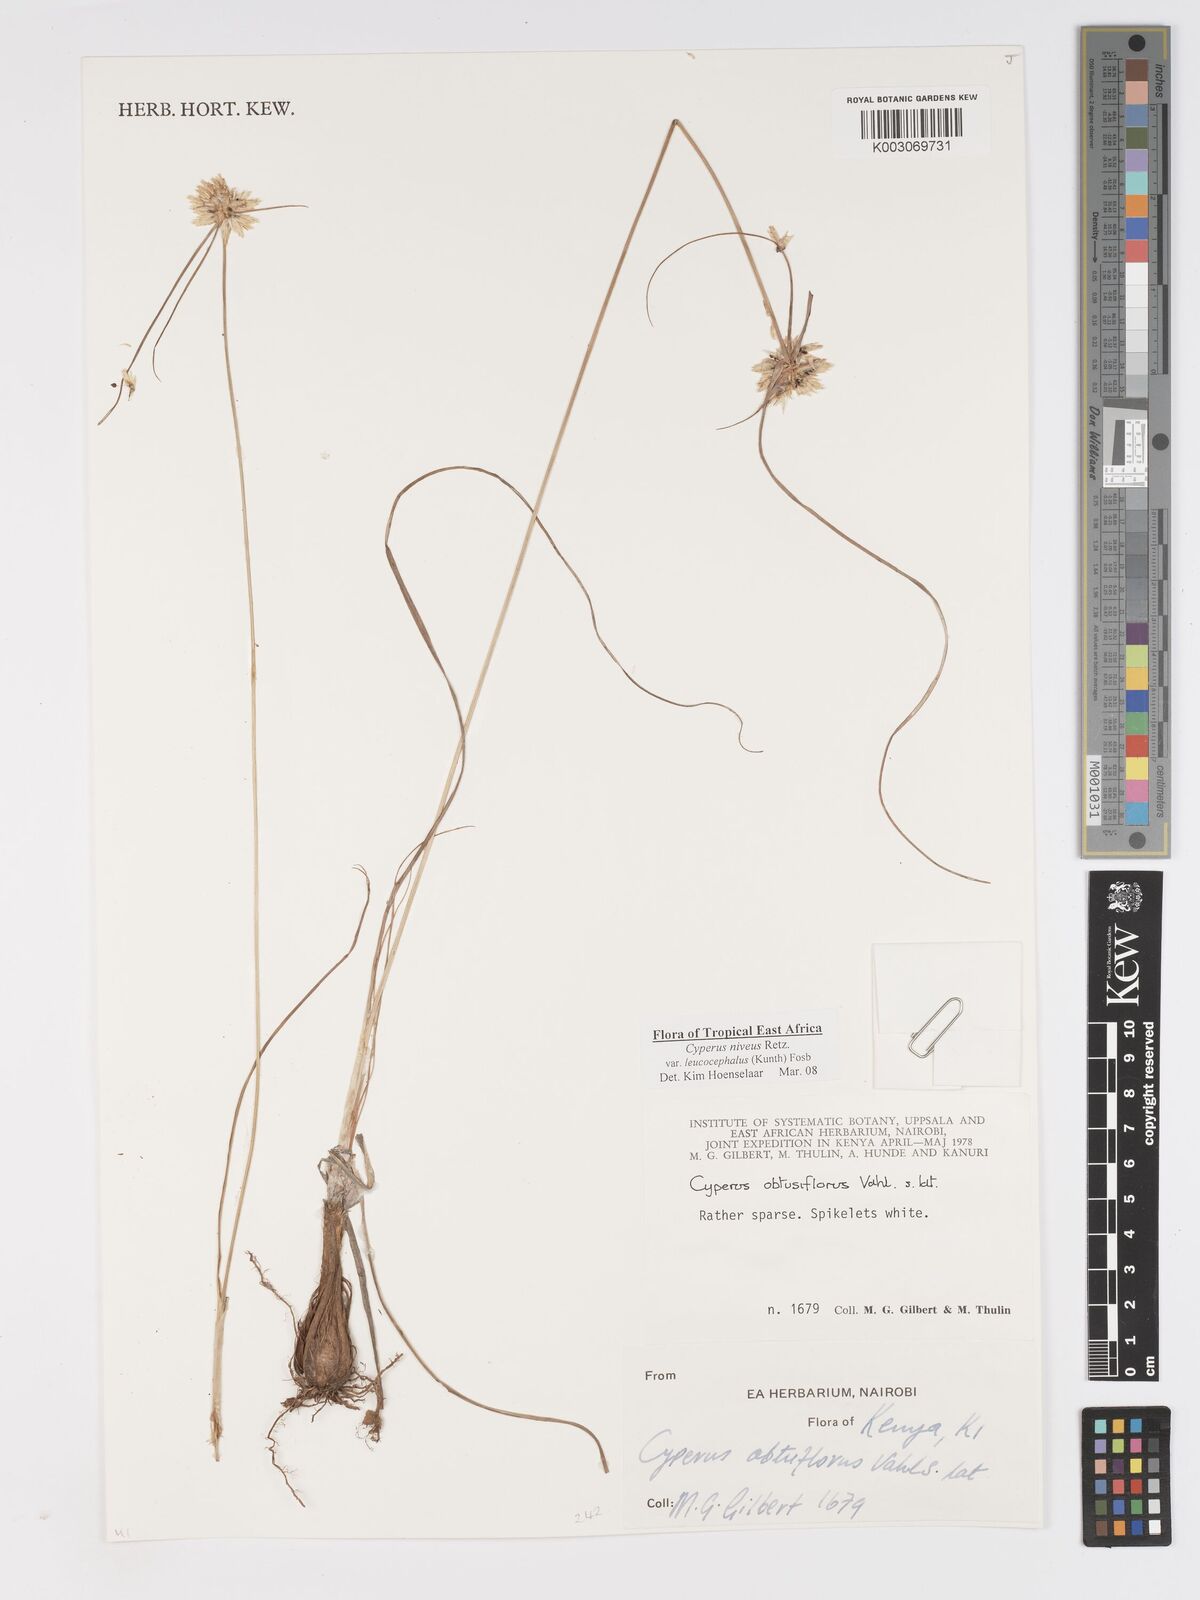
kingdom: Plantae
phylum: Tracheophyta
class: Liliopsida
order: Poales
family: Cyperaceae
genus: Cyperus
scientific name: Cyperus niveus
